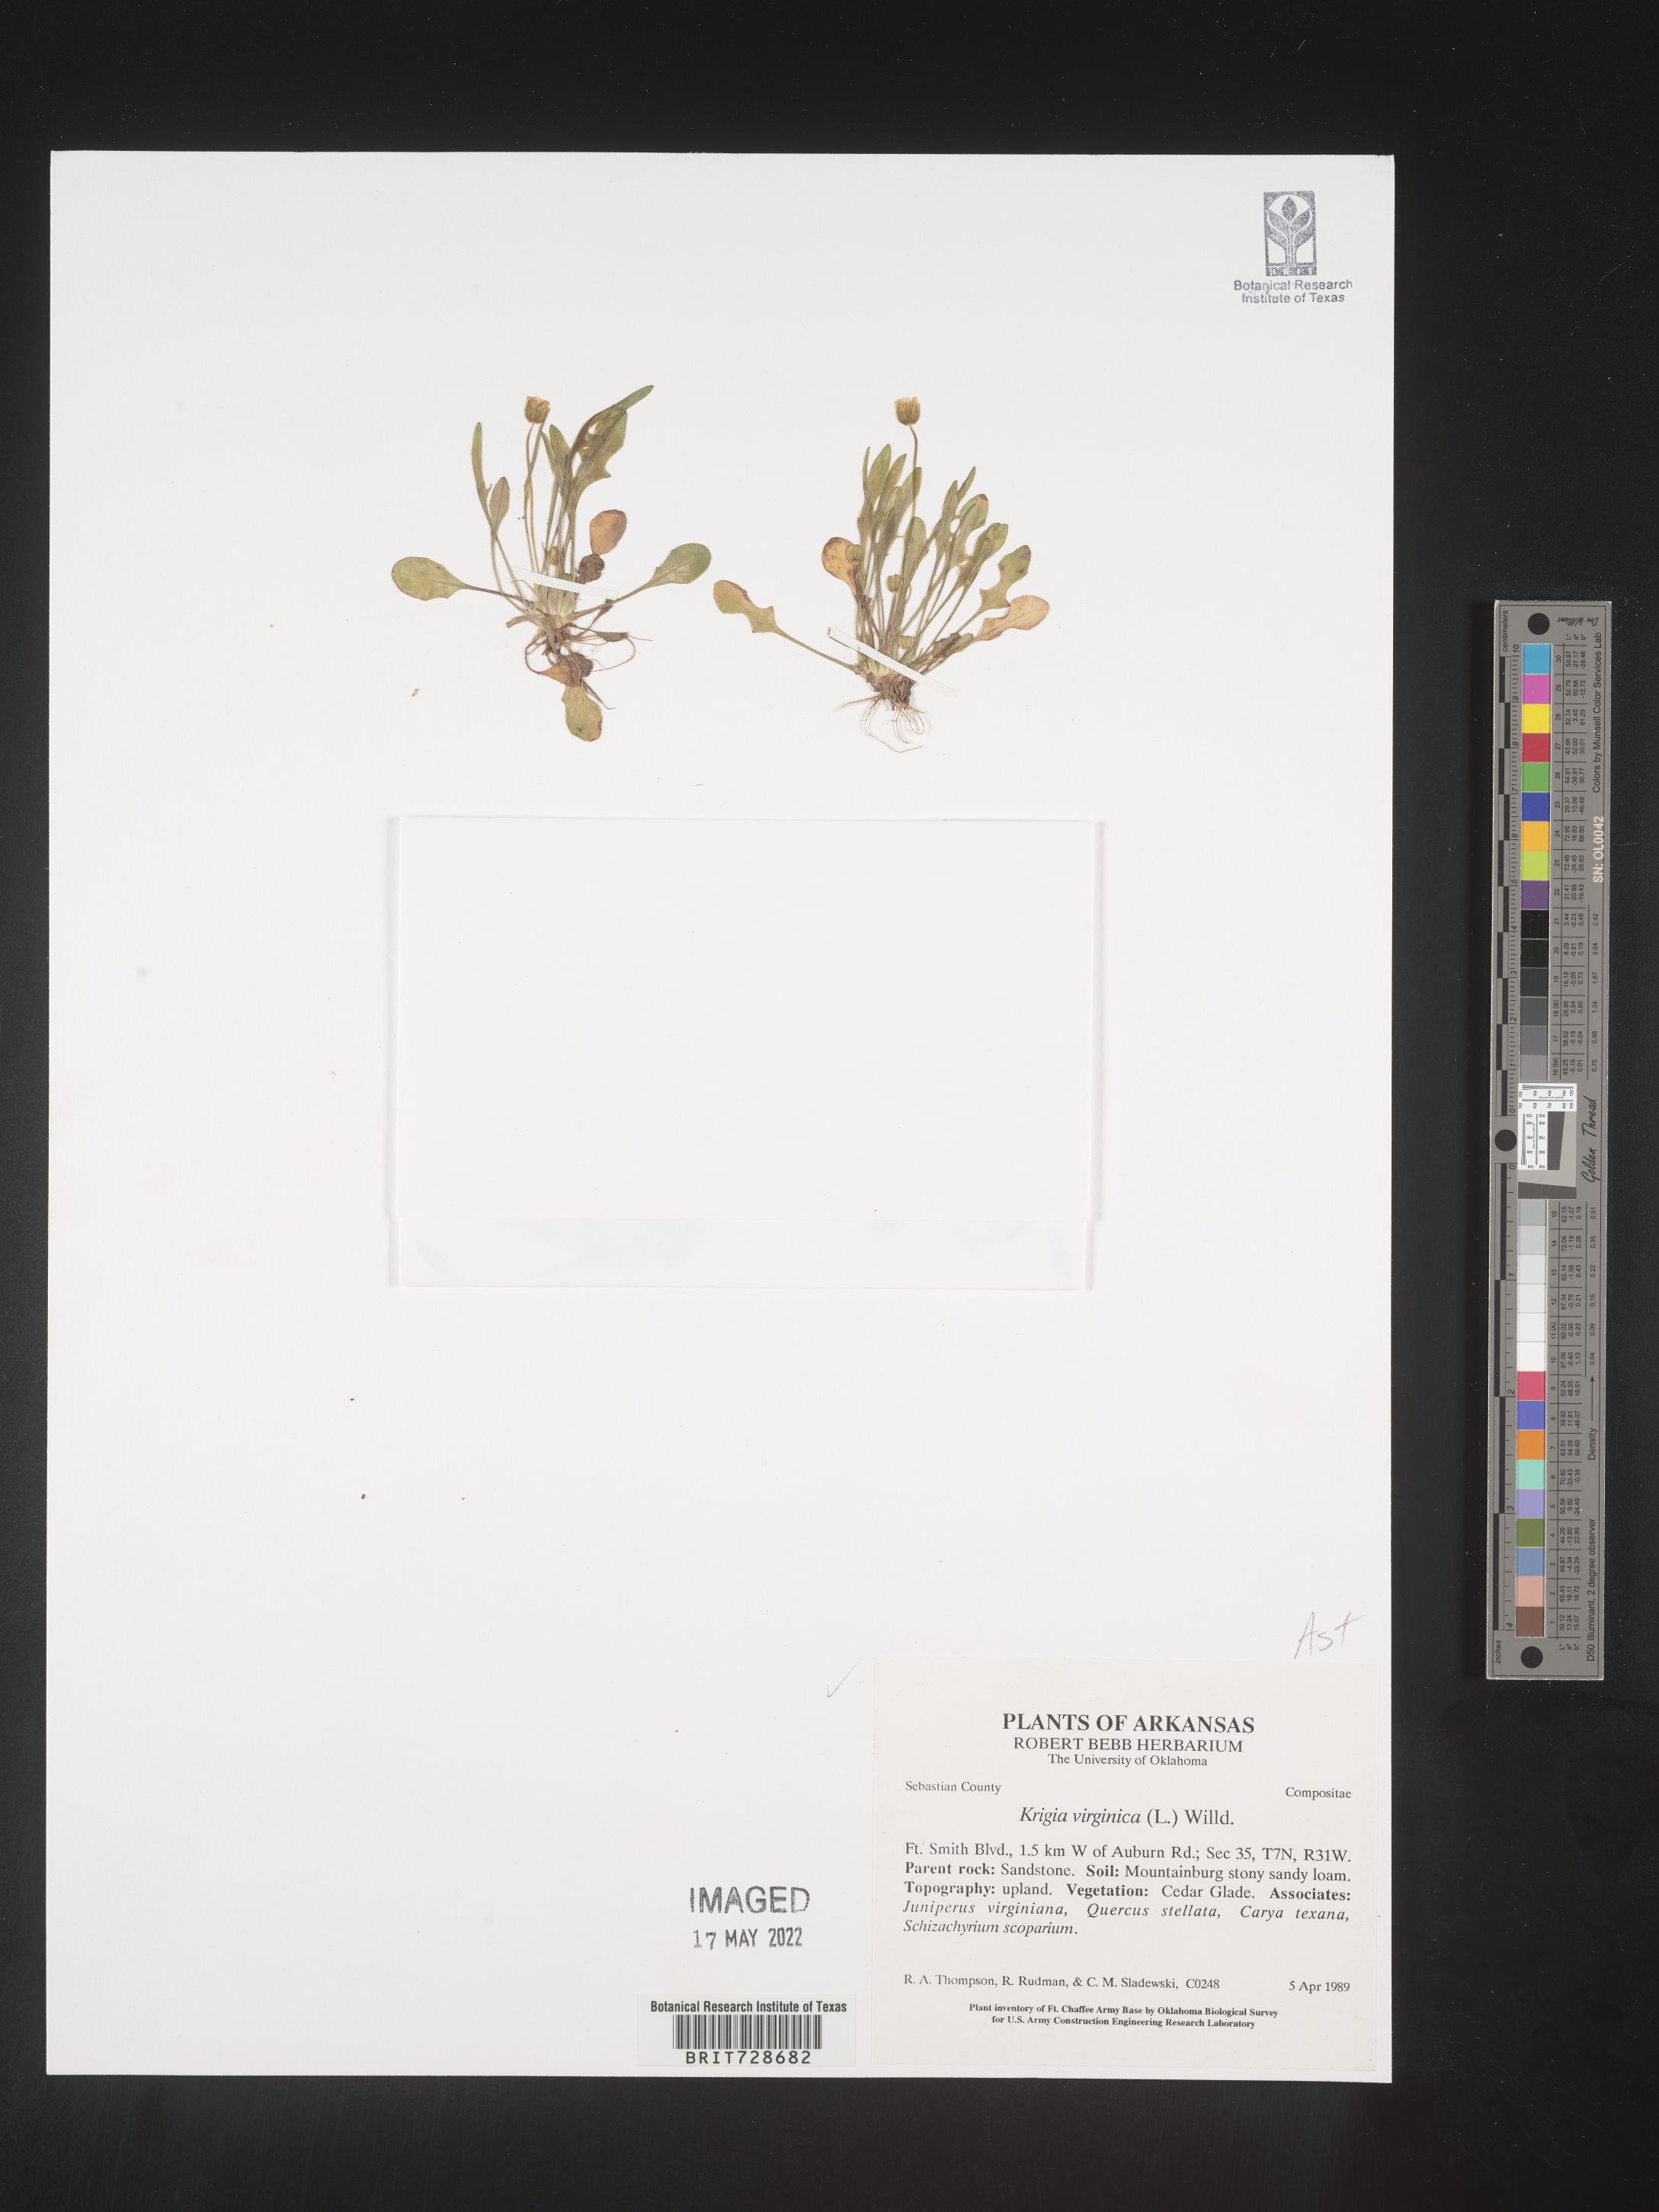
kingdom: Plantae
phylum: Tracheophyta
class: Magnoliopsida
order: Asterales
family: Asteraceae
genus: Krigia
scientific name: Krigia virginica
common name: Virginia dwarf-dandelion
